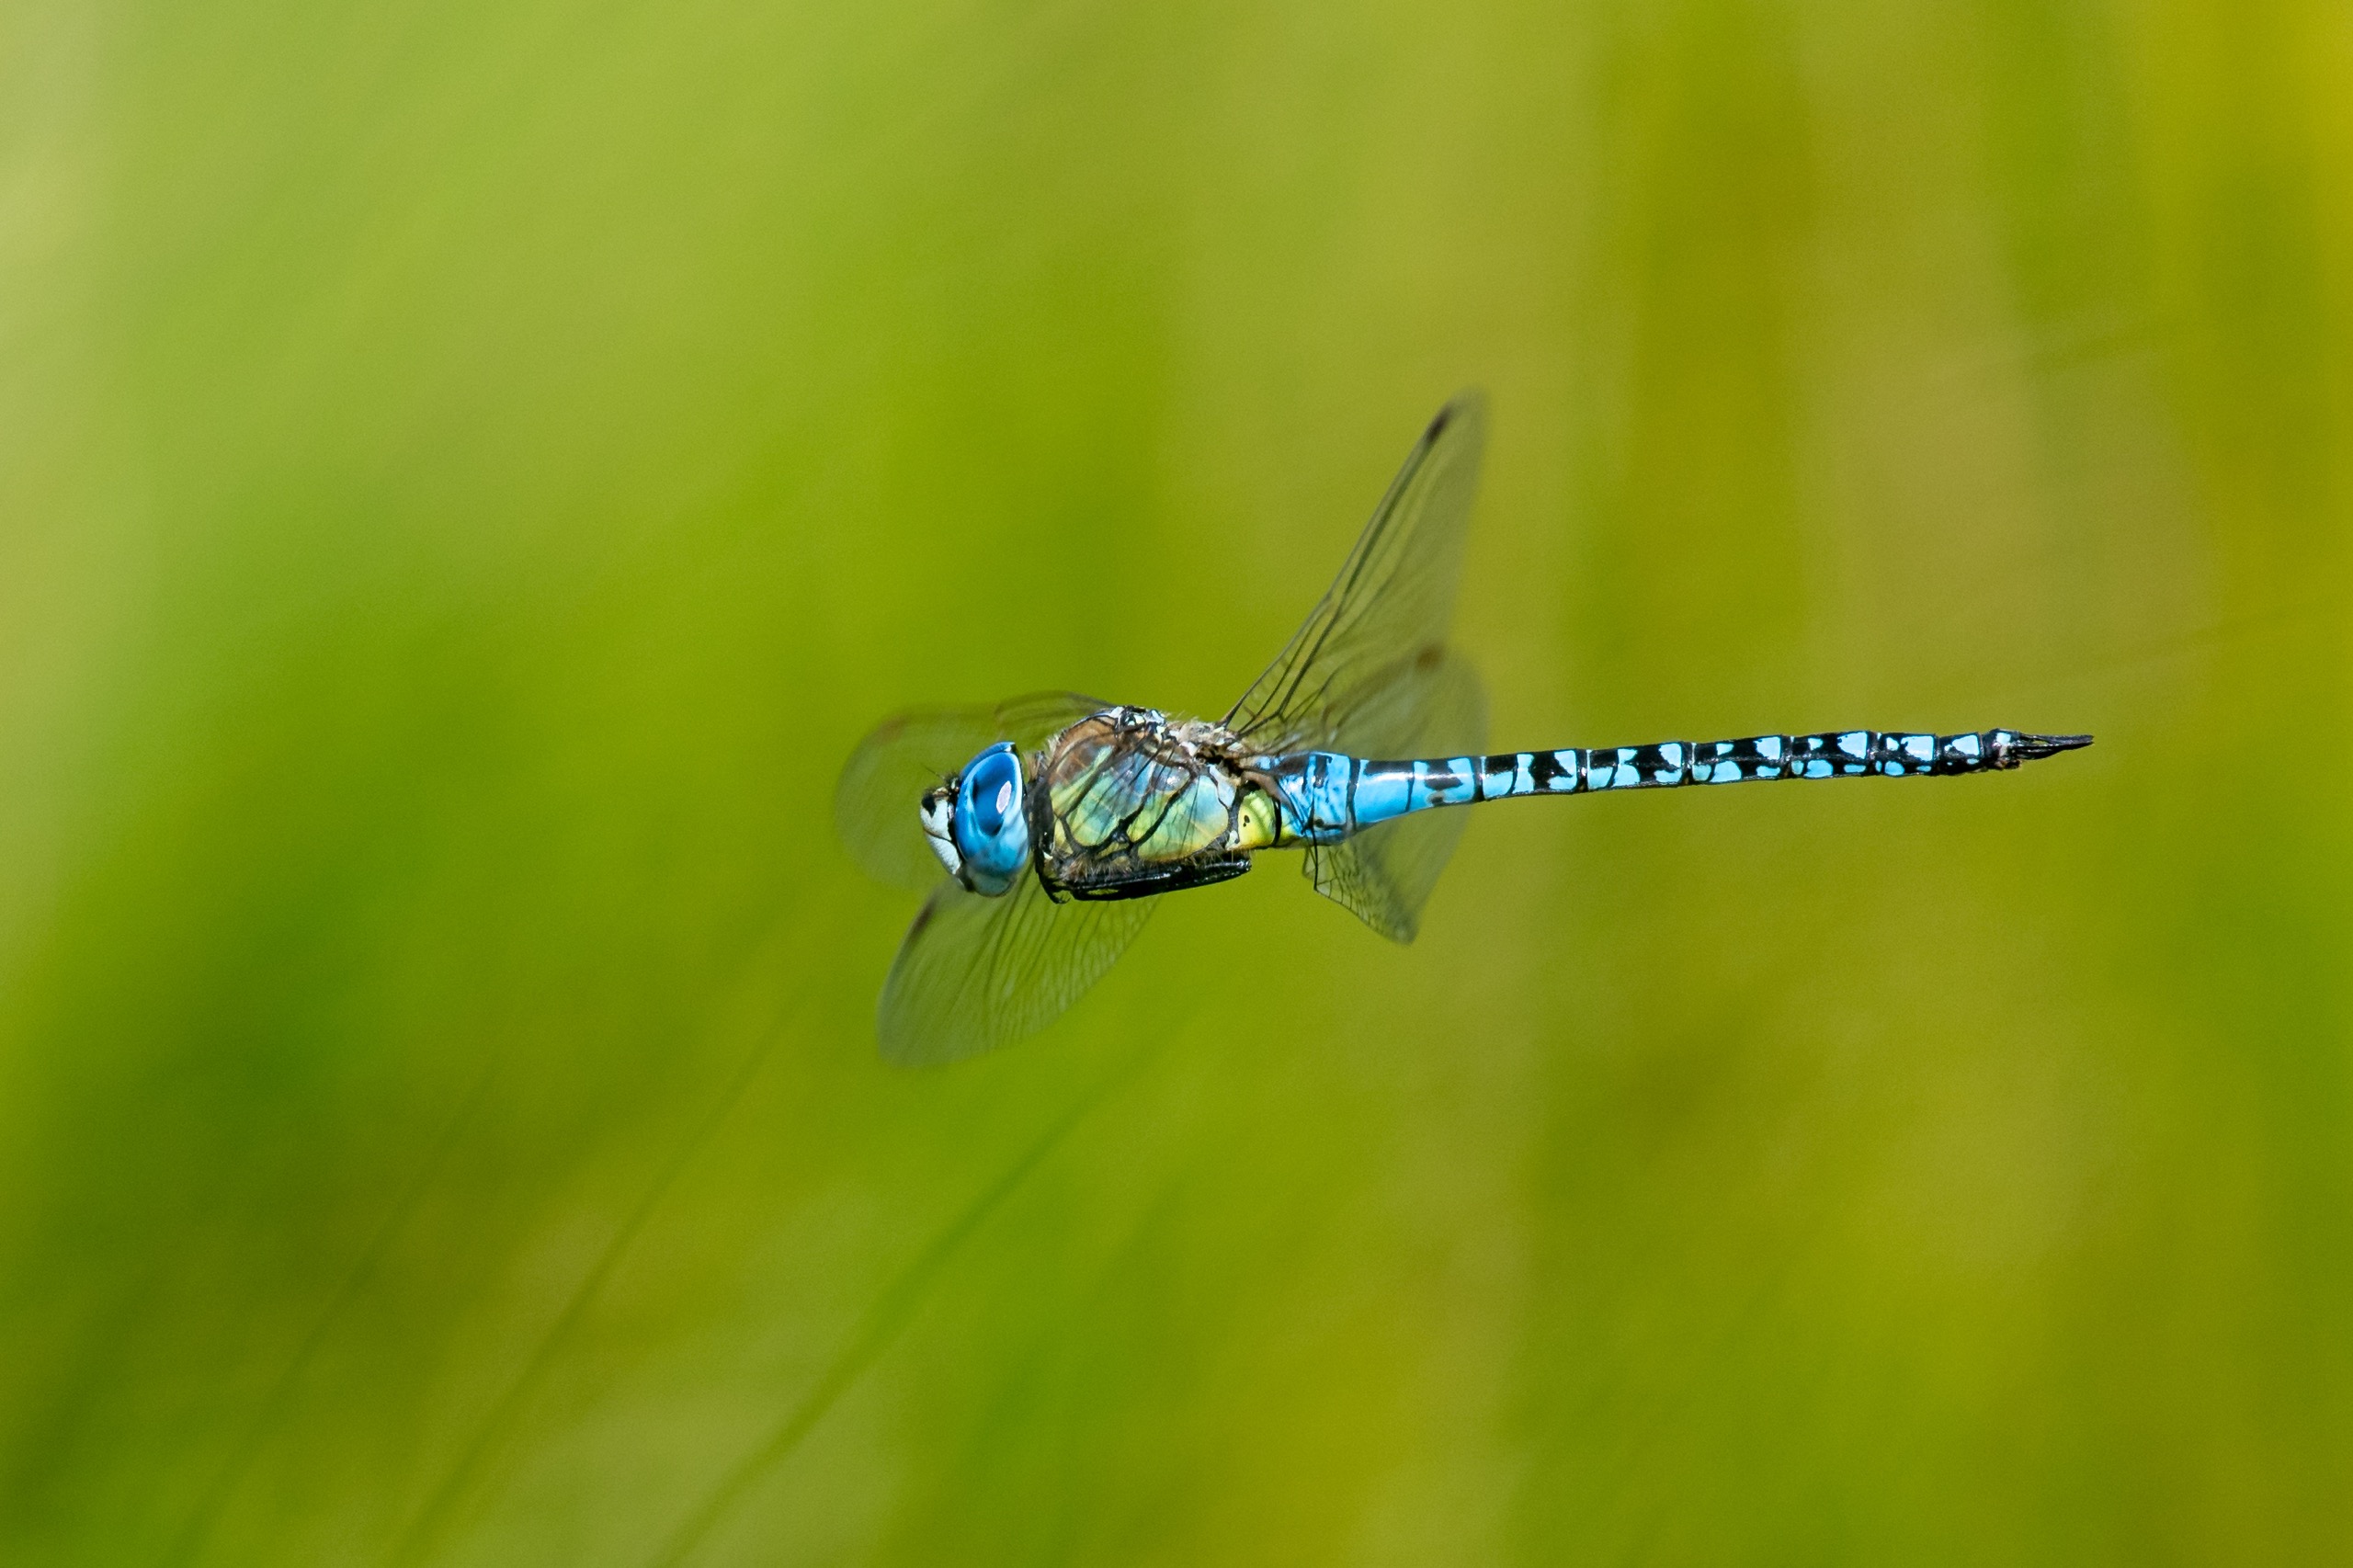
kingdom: Animalia
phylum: Arthropoda
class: Insecta
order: Odonata
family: Aeshnidae
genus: Aeshna
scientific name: Aeshna affinis
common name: Sydlig mosaikguldsmed
